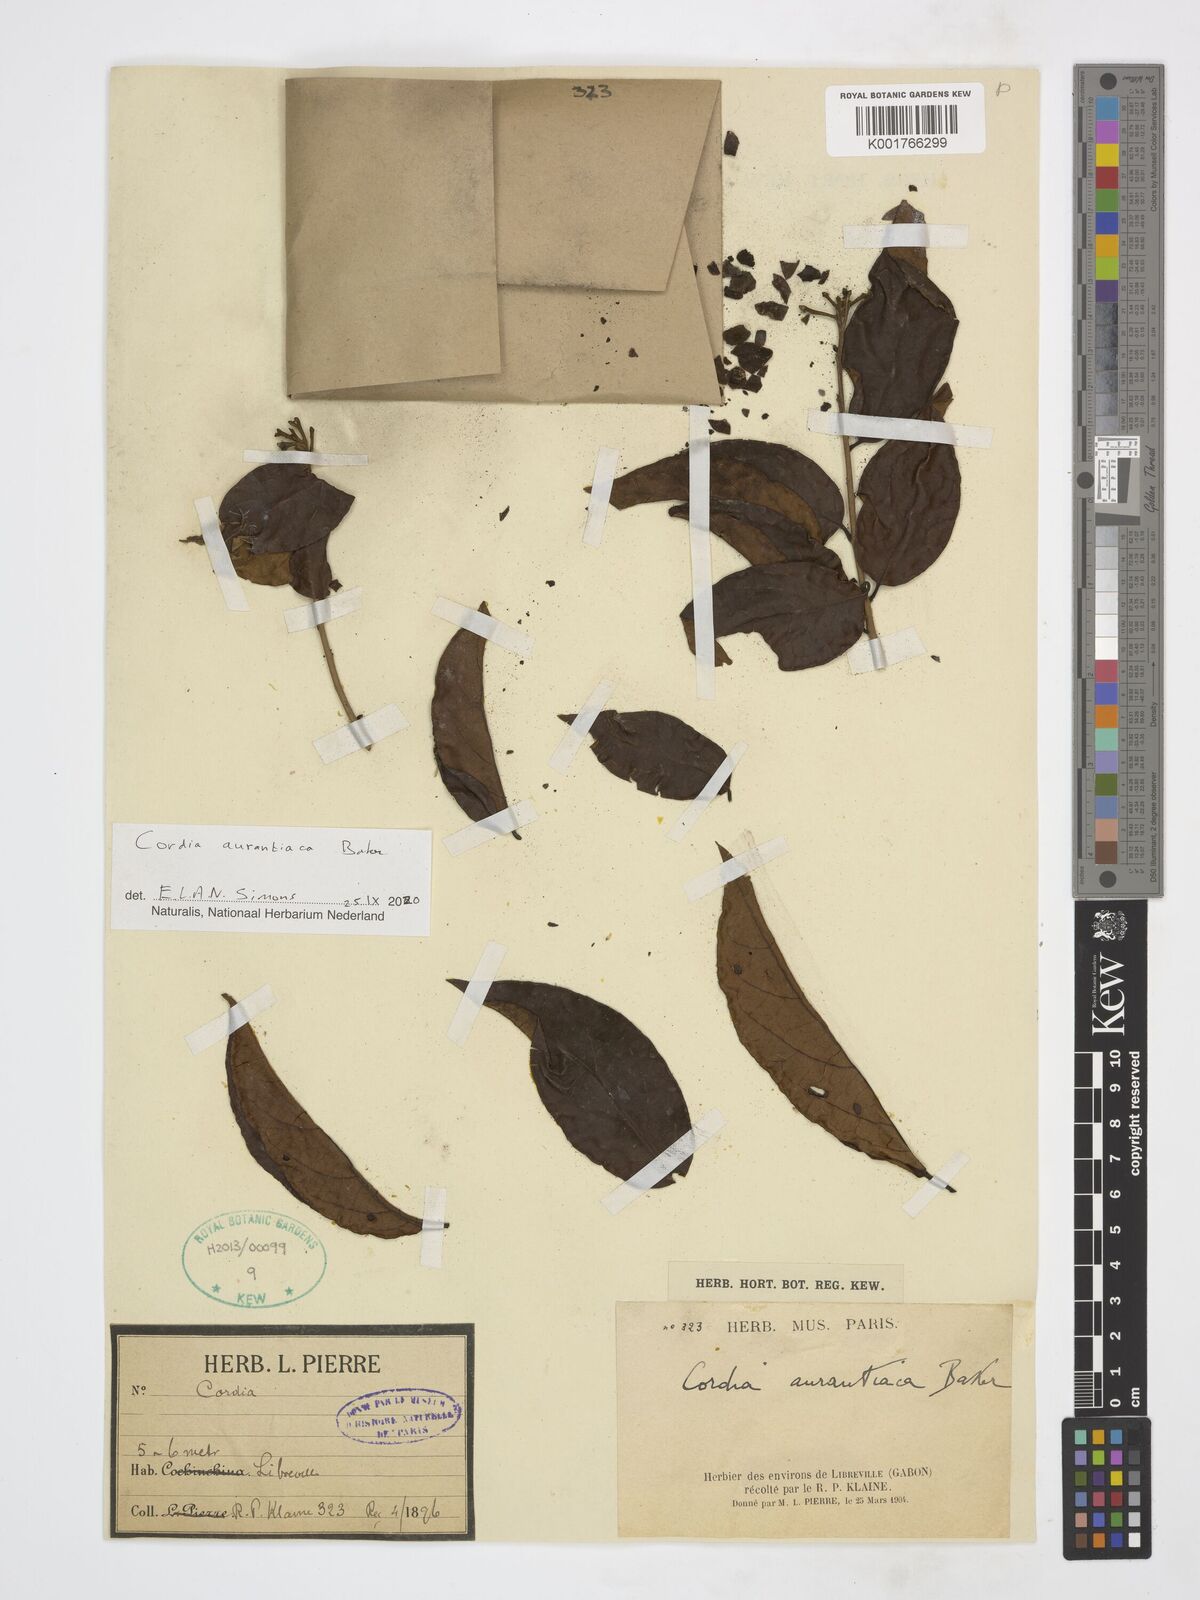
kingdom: Plantae
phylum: Tracheophyta
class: Magnoliopsida
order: Boraginales
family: Cordiaceae
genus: Cordia
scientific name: Cordia aurantiaca
